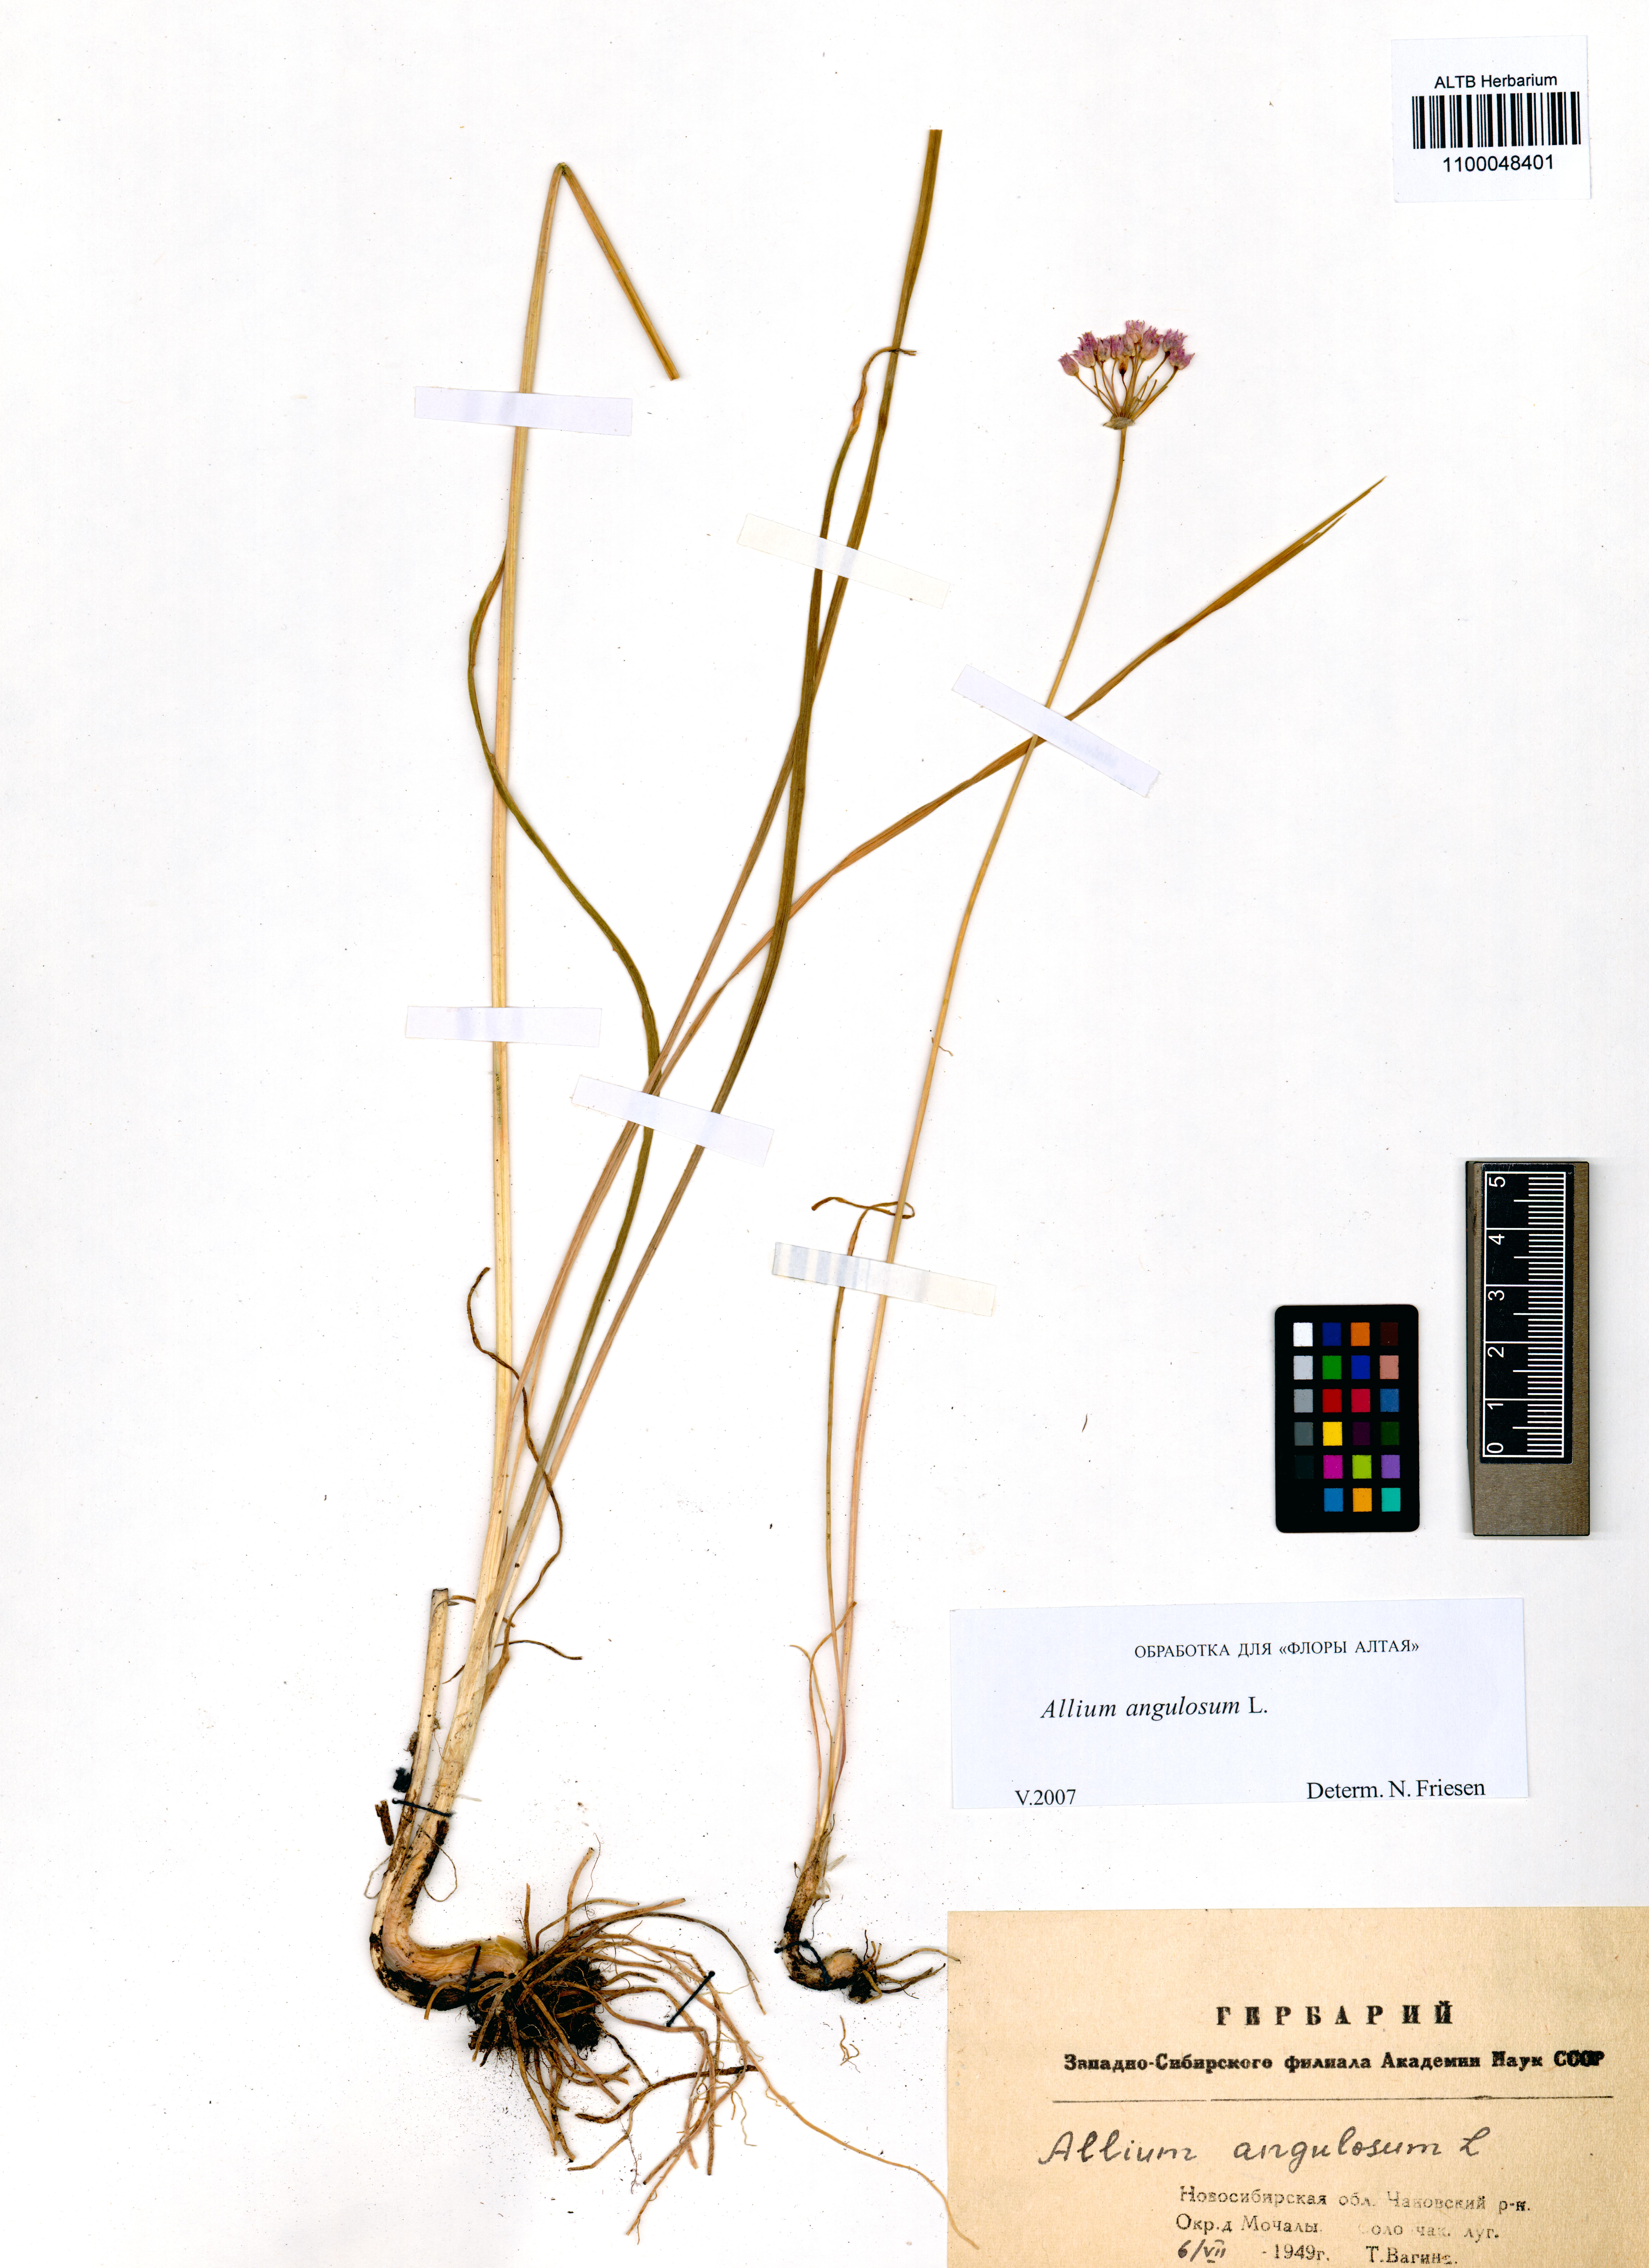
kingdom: Plantae
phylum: Tracheophyta
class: Liliopsida
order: Asparagales
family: Amaryllidaceae
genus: Allium
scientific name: Allium angulosum
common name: Mouse garlic
